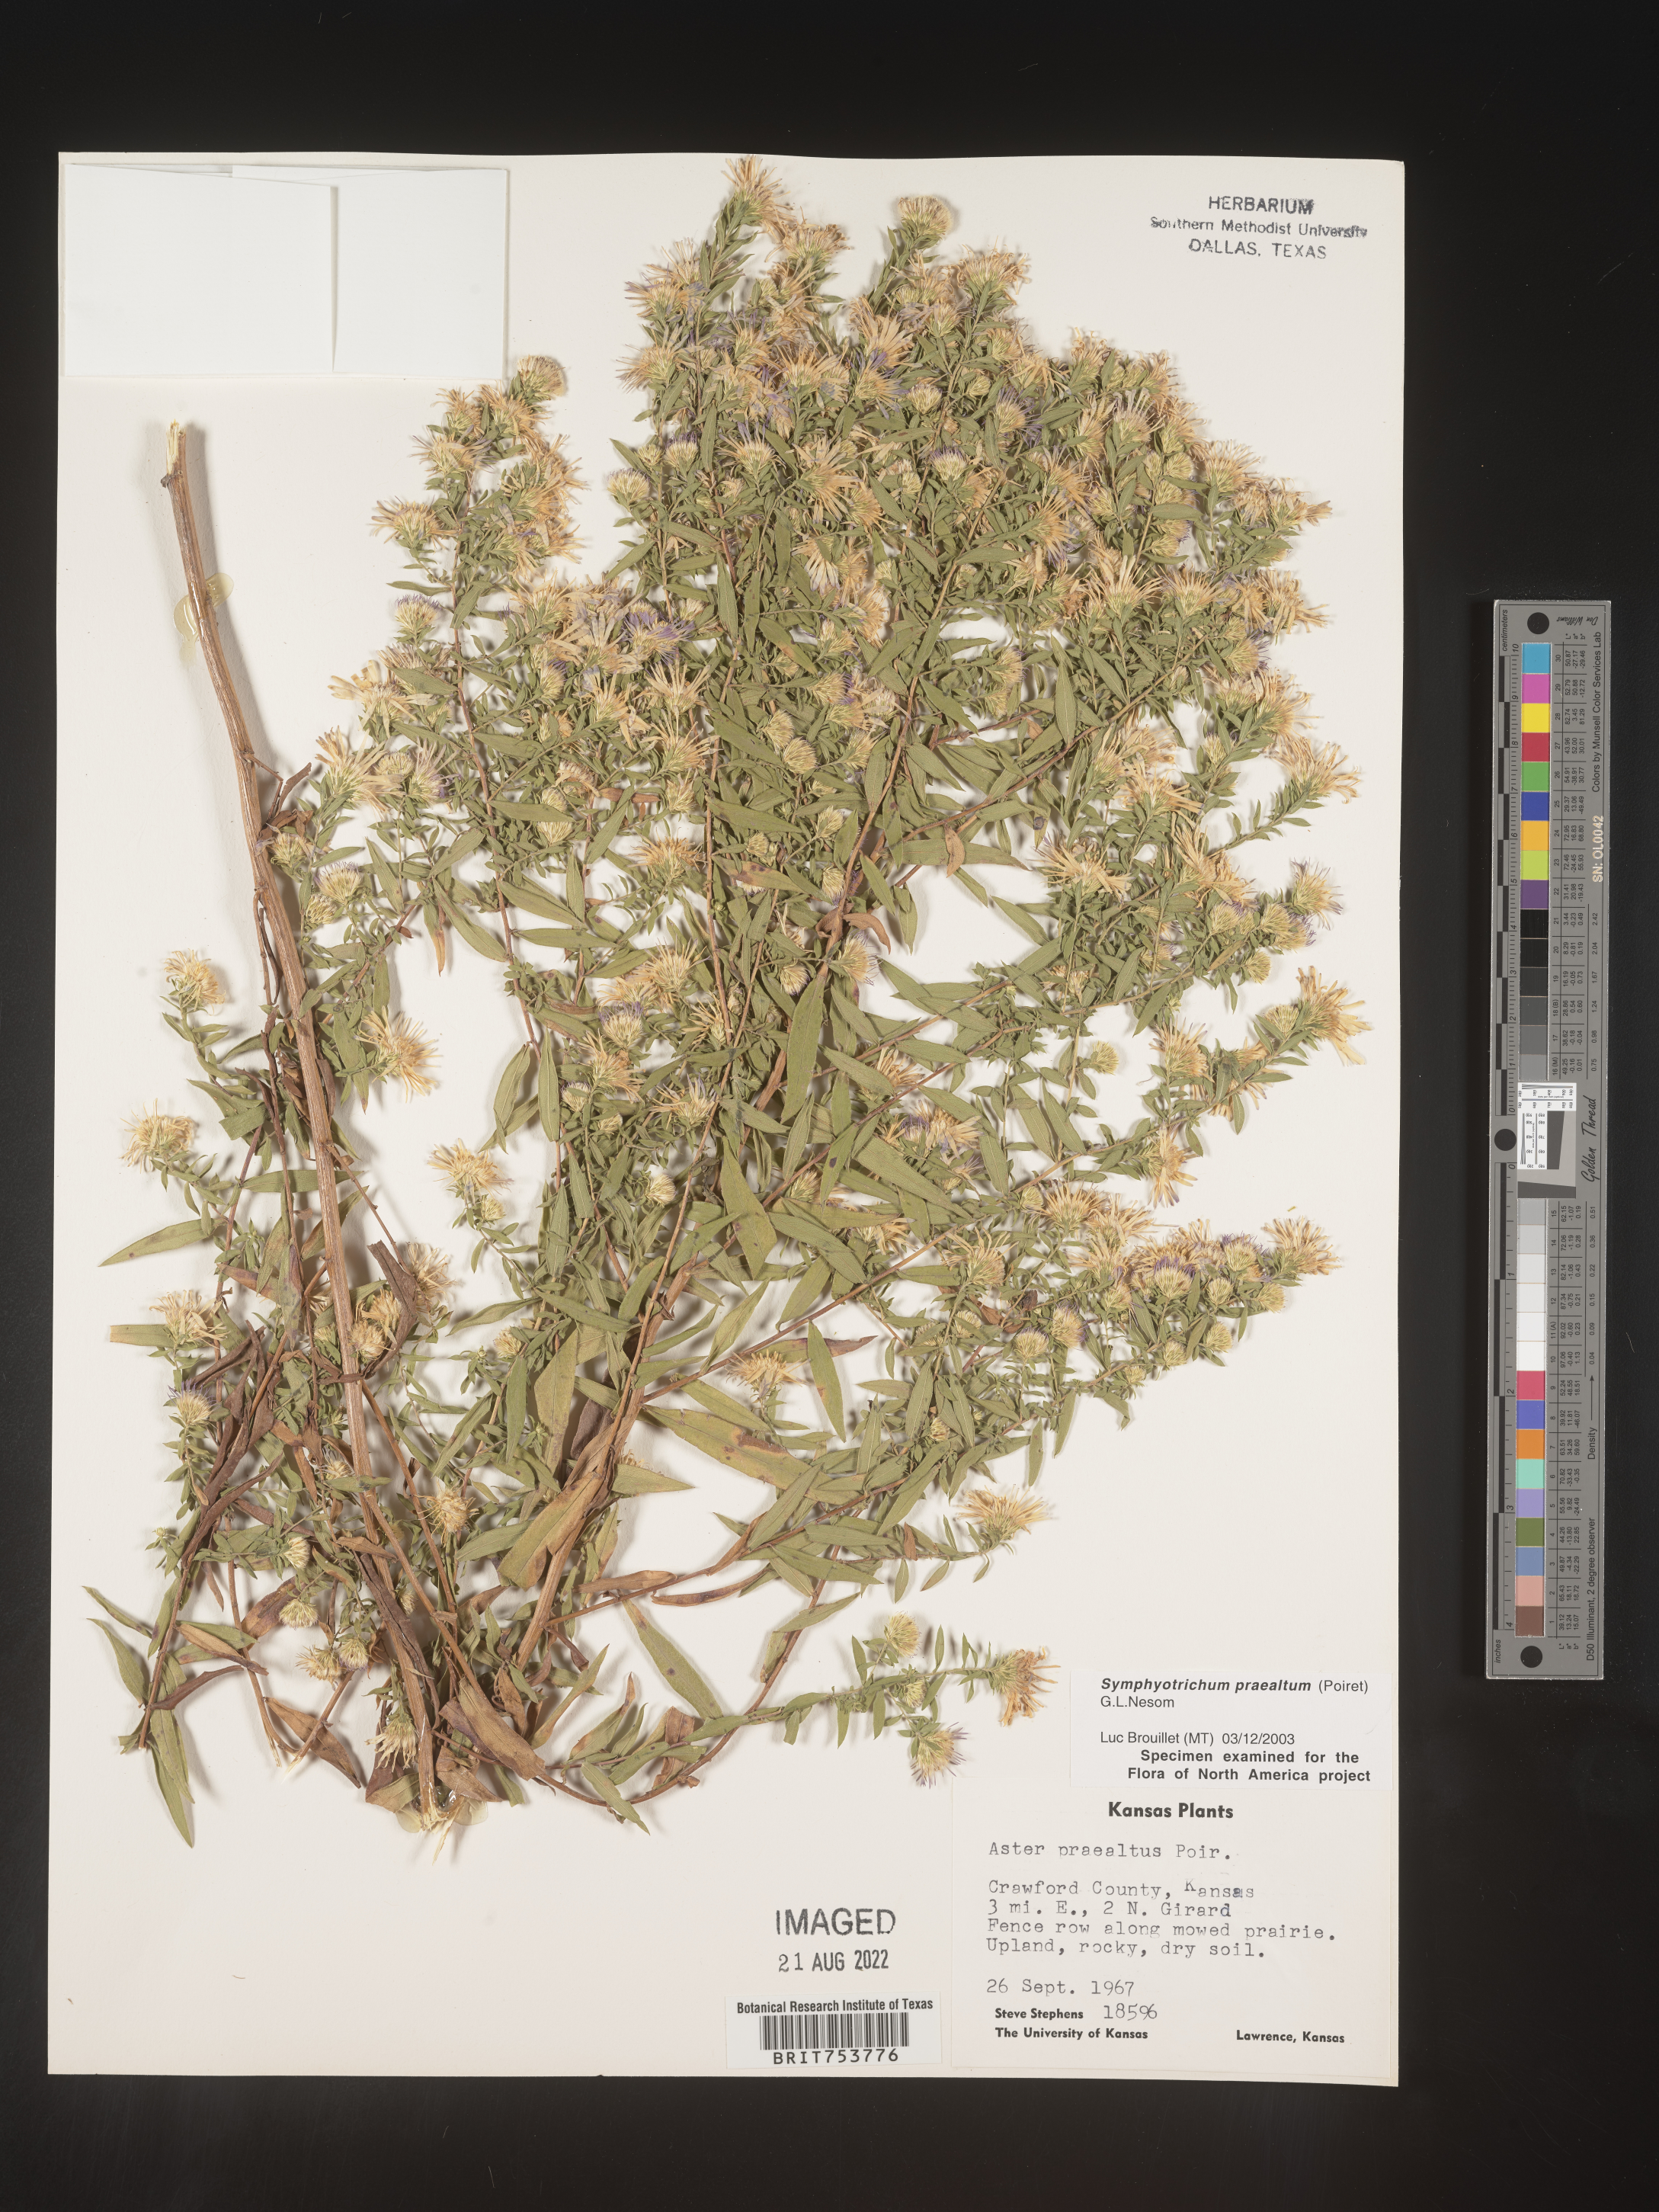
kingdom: Plantae
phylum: Tracheophyta
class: Magnoliopsida
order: Asterales
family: Asteraceae
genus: Symphyotrichum
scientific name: Symphyotrichum praealtum
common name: Willow aster
